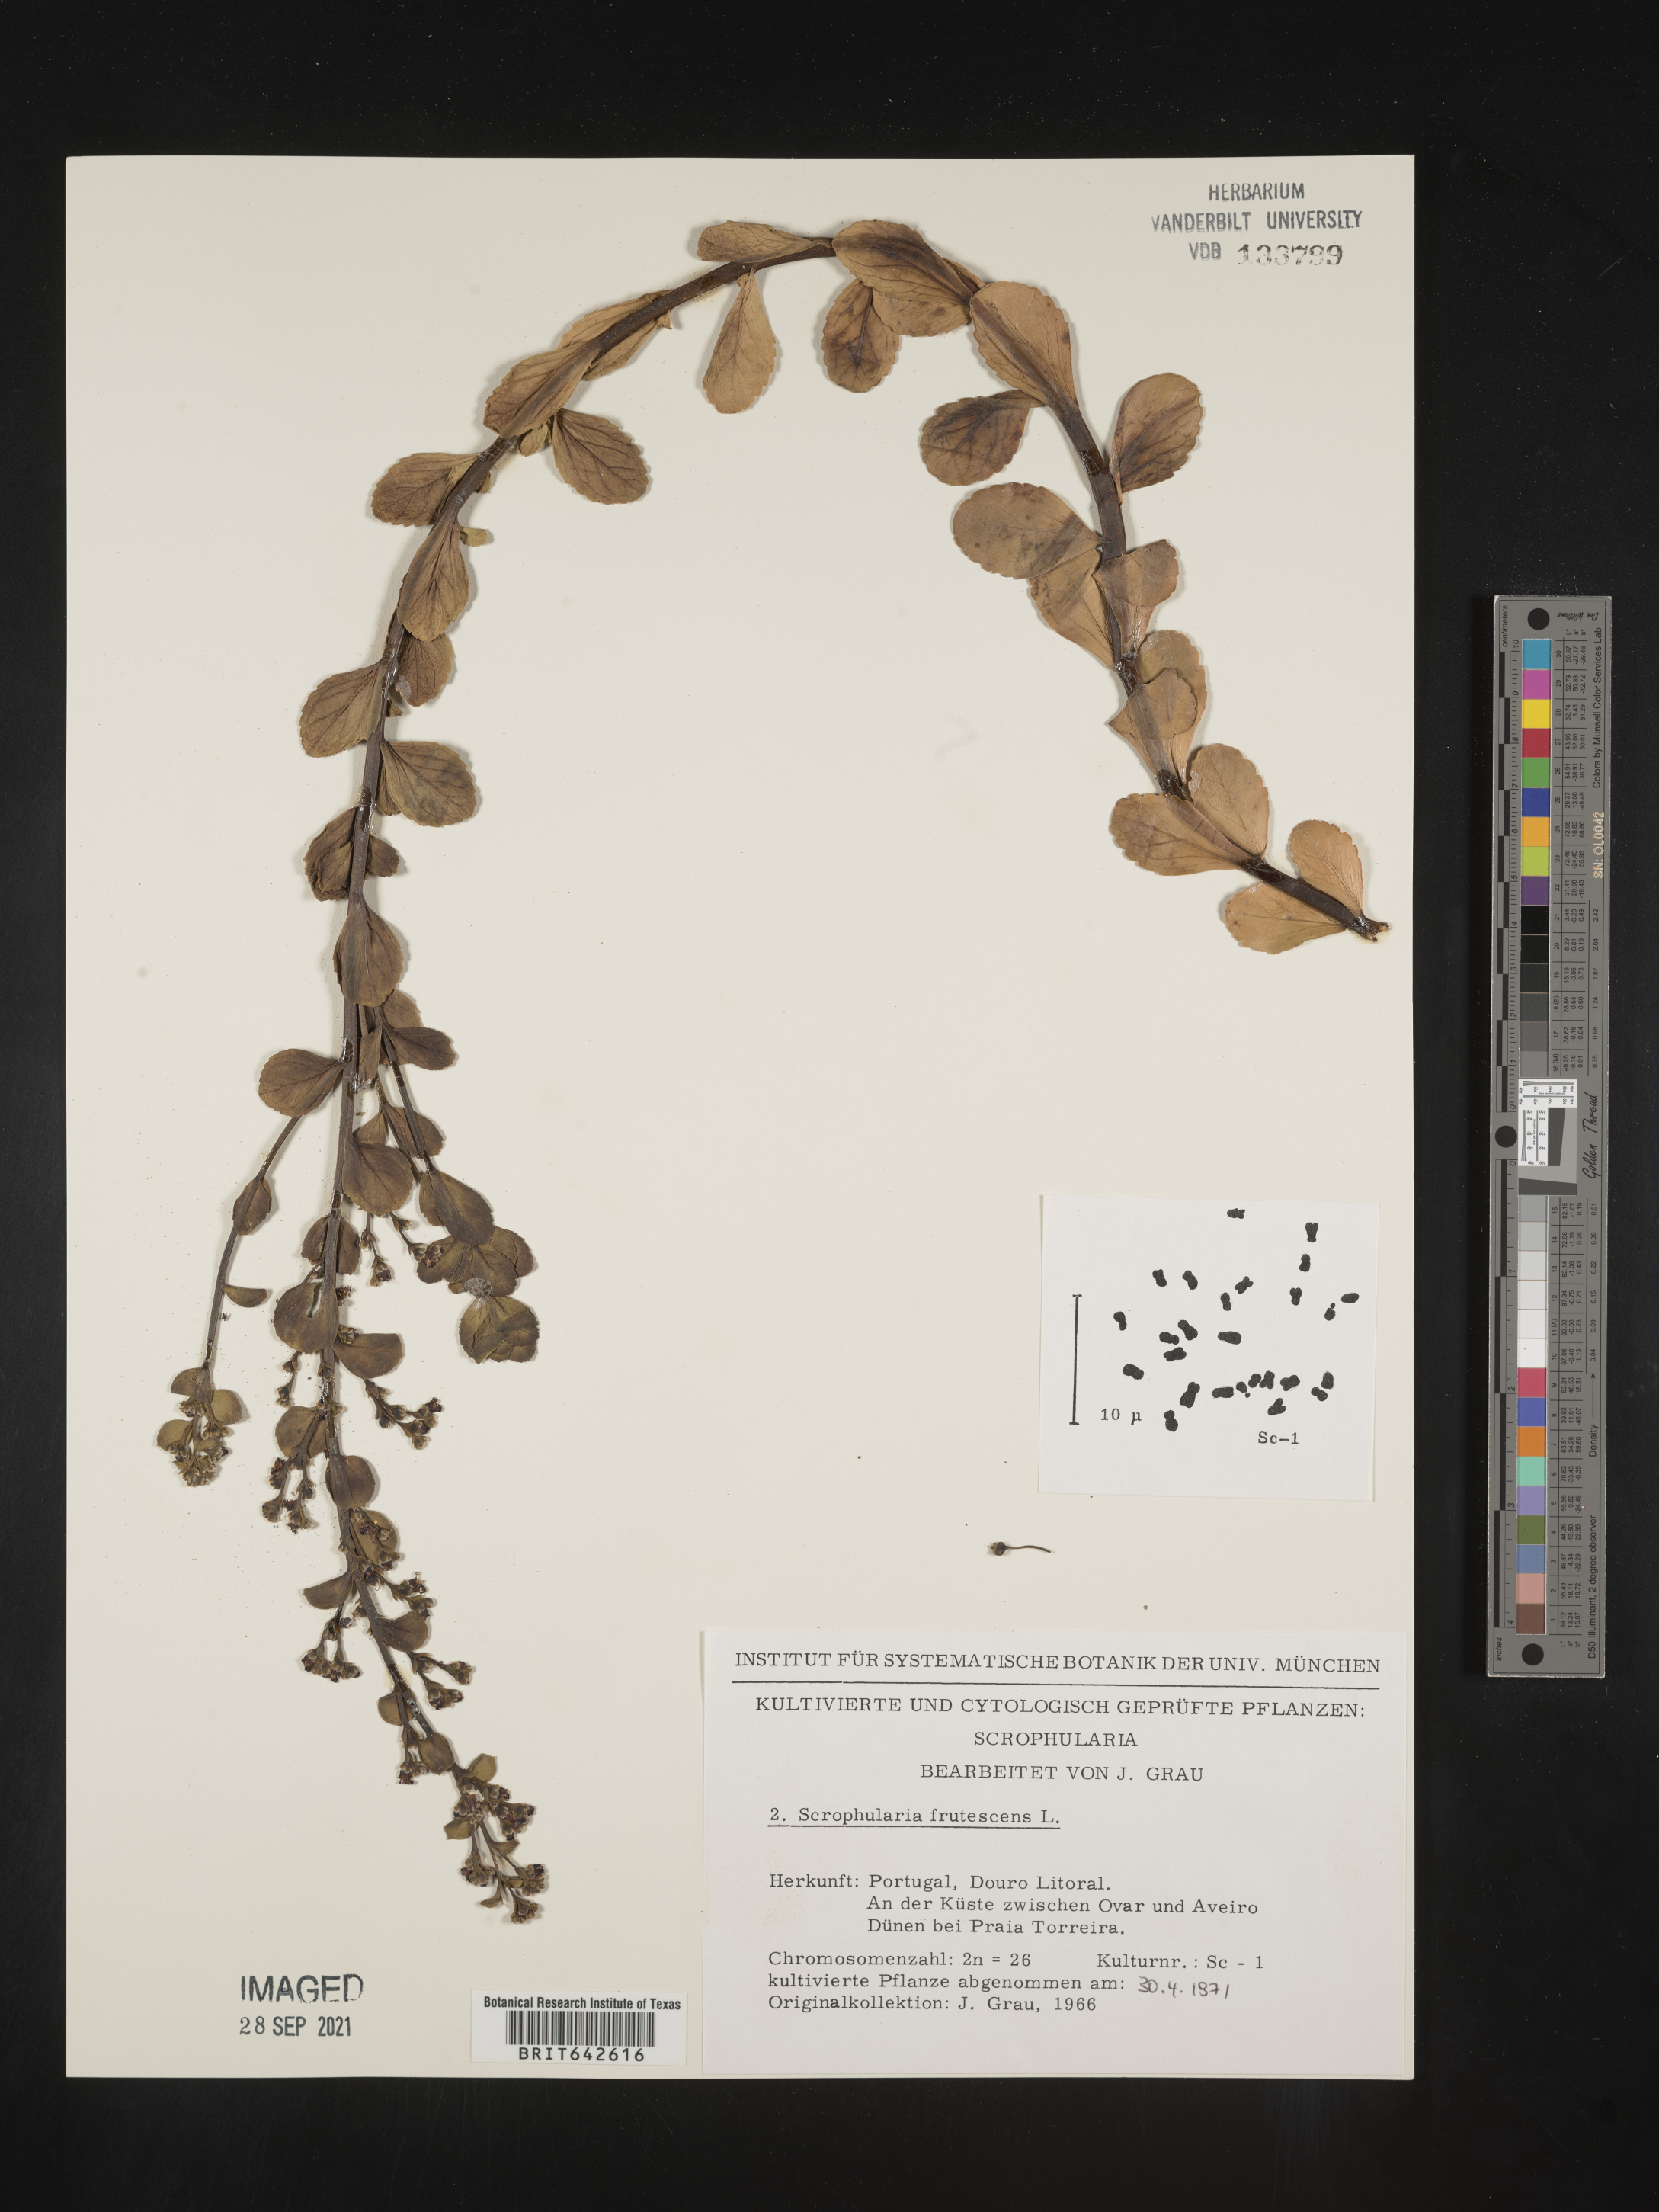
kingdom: Plantae
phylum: Tracheophyta
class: Magnoliopsida
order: Lamiales
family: Scrophulariaceae
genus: Scrophularia
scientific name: Scrophularia
